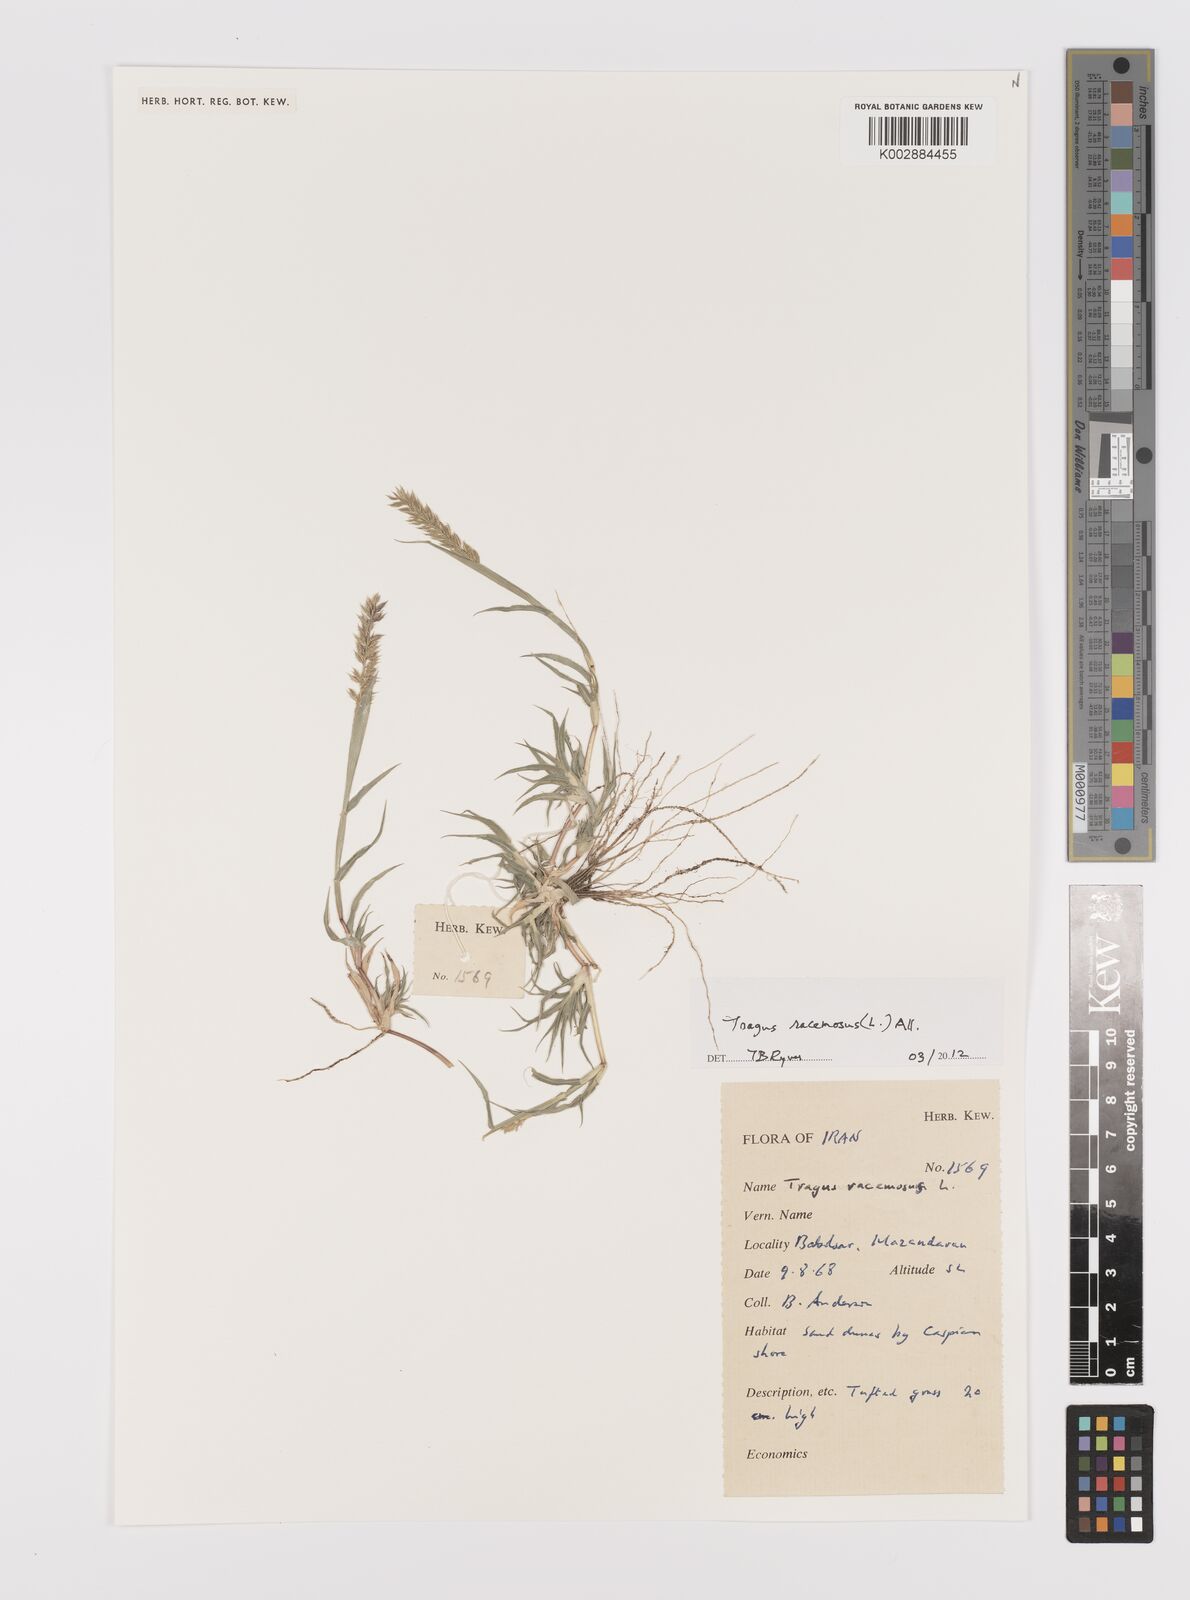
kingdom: Plantae
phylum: Tracheophyta
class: Liliopsida
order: Poales
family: Poaceae
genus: Tragus
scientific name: Tragus racemosus
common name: European bur-grass
